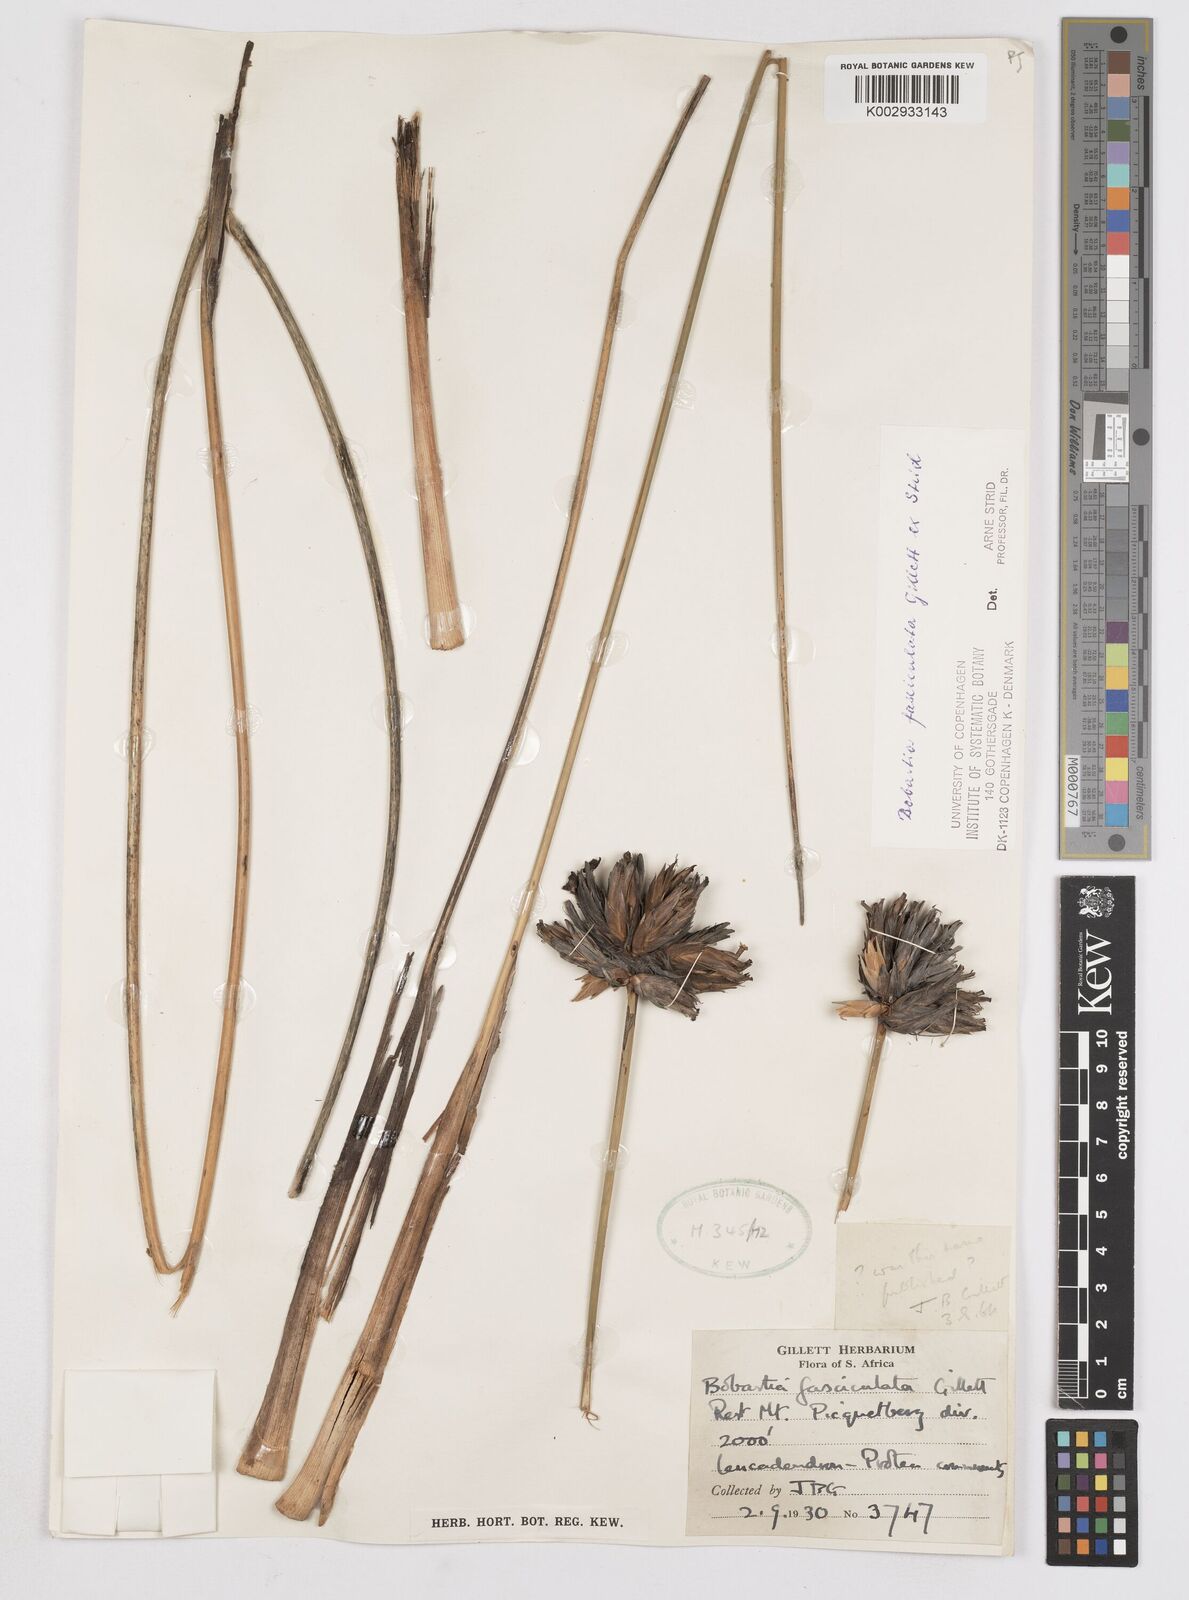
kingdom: Plantae
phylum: Tracheophyta
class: Liliopsida
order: Asparagales
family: Iridaceae
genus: Bobartia
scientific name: Bobartia fasciculata
